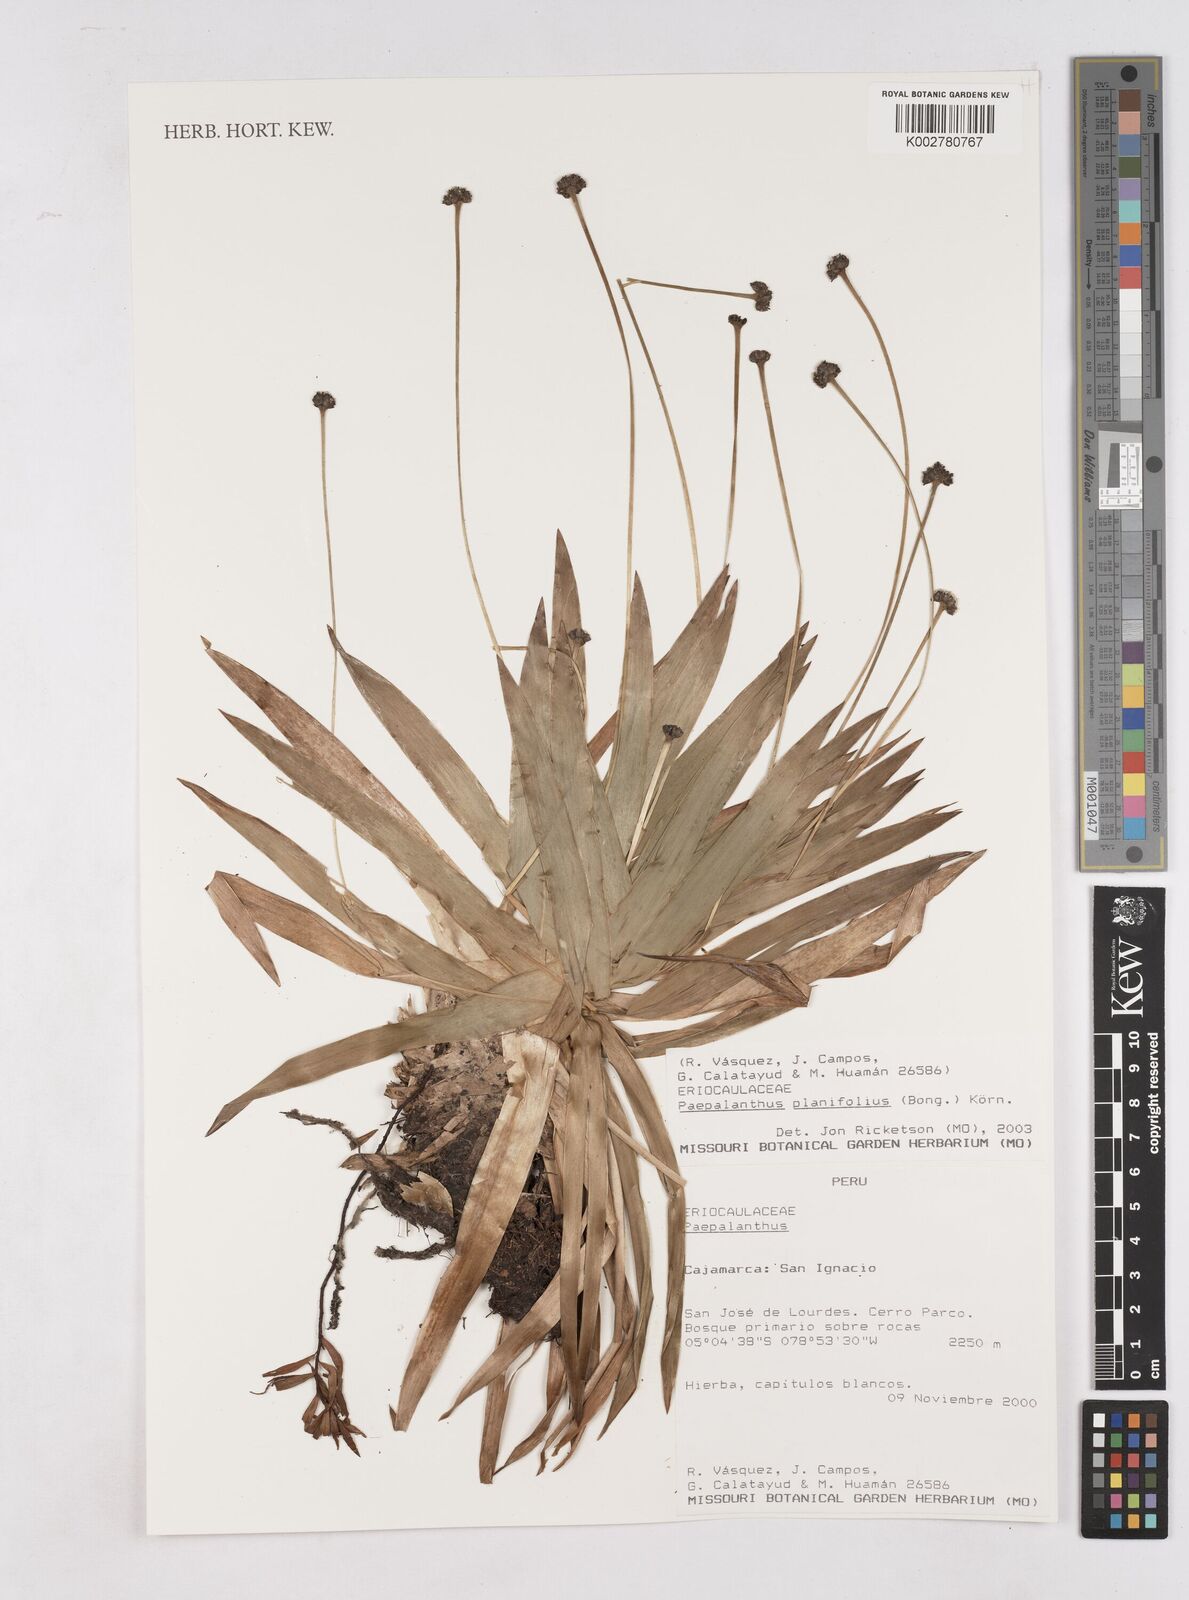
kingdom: Plantae
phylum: Tracheophyta
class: Liliopsida
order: Poales
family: Eriocaulaceae
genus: Paepalanthus
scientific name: Paepalanthus planifolius
